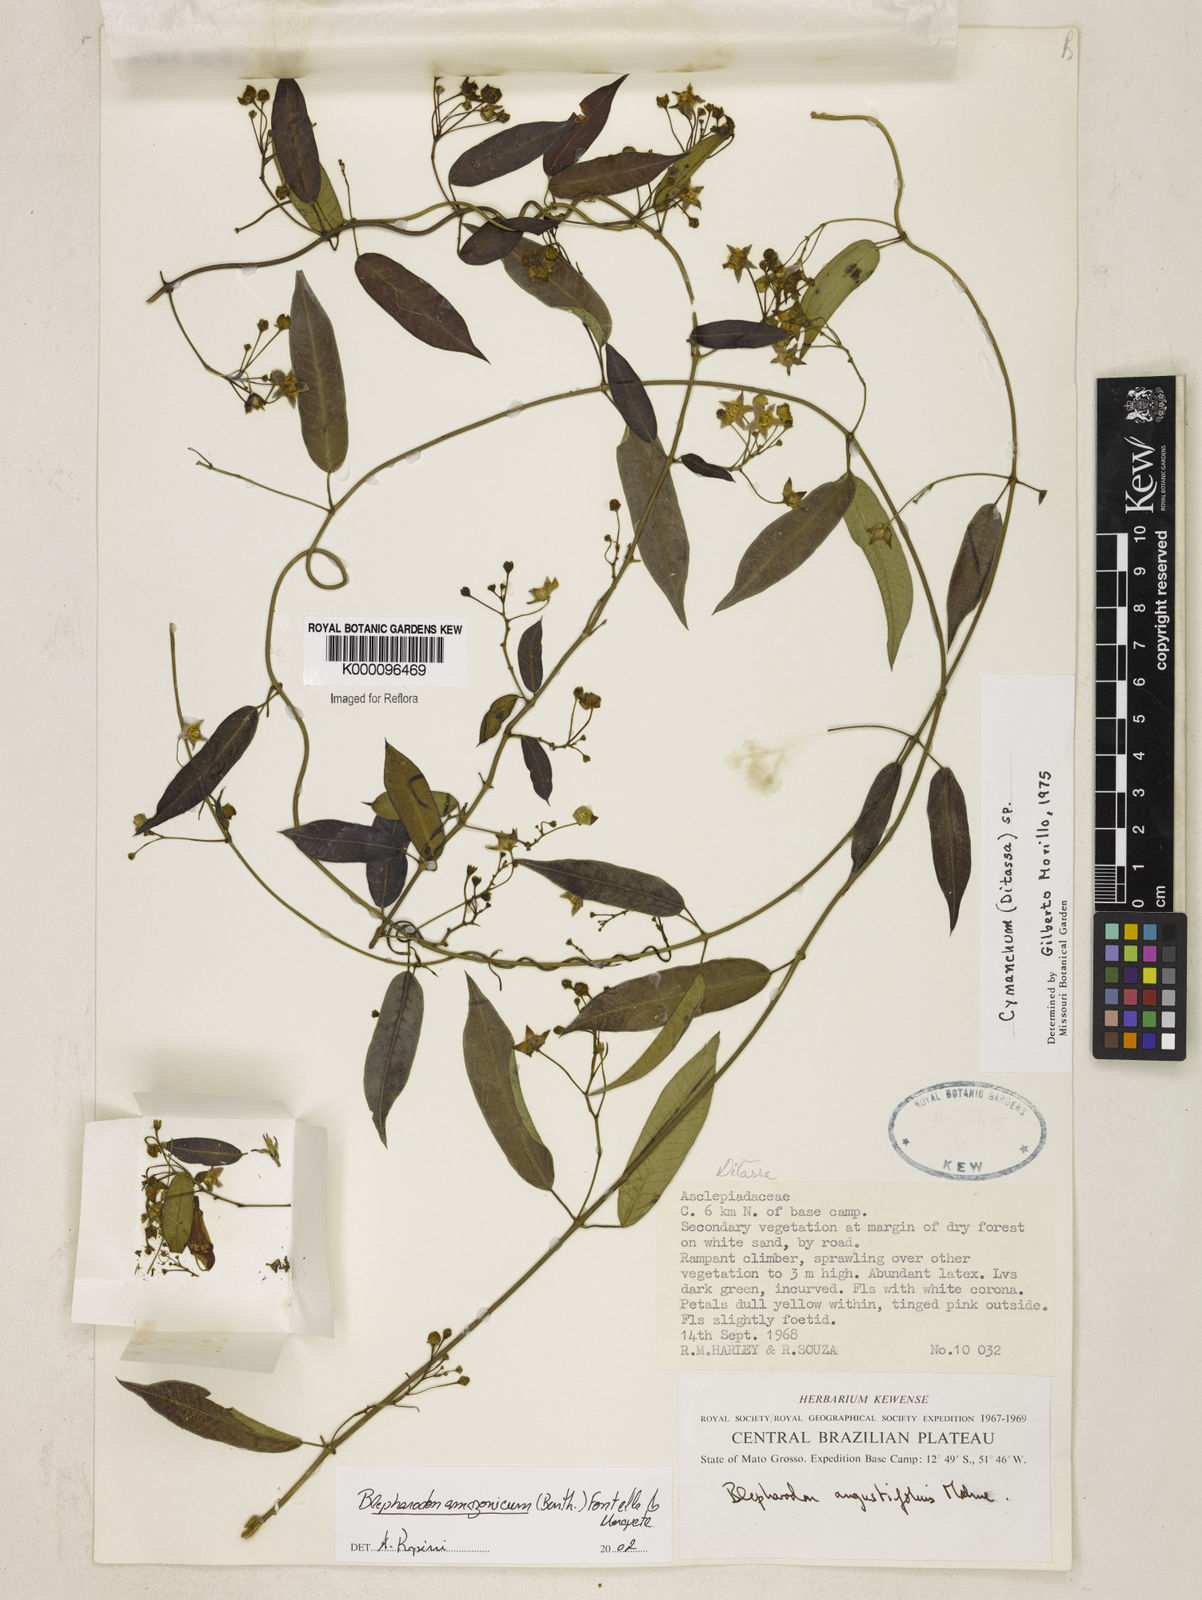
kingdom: Plantae
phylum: Tracheophyta
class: Magnoliopsida
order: Gentianales
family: Apocynaceae
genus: Blepharodon
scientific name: Blepharodon amazonicum
